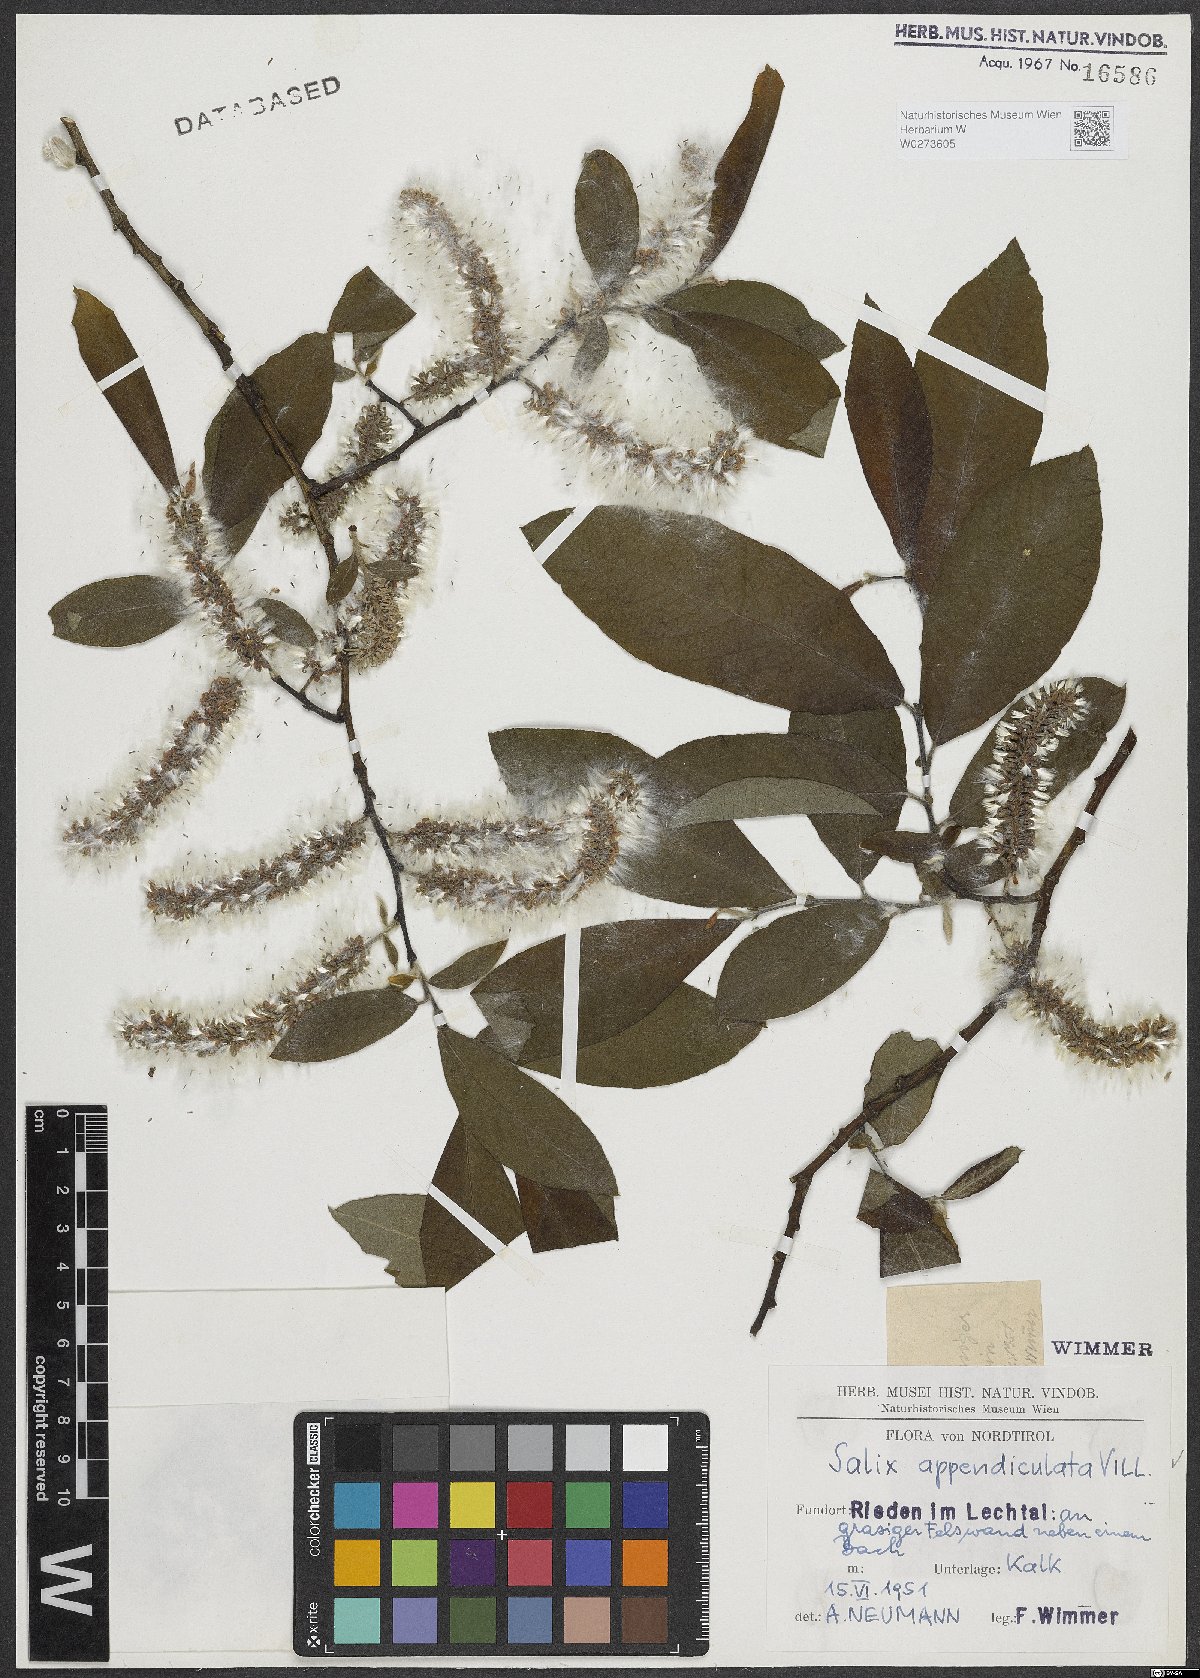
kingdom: Plantae
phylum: Tracheophyta
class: Magnoliopsida
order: Malpighiales
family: Salicaceae
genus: Salix
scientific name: Salix appendiculata
